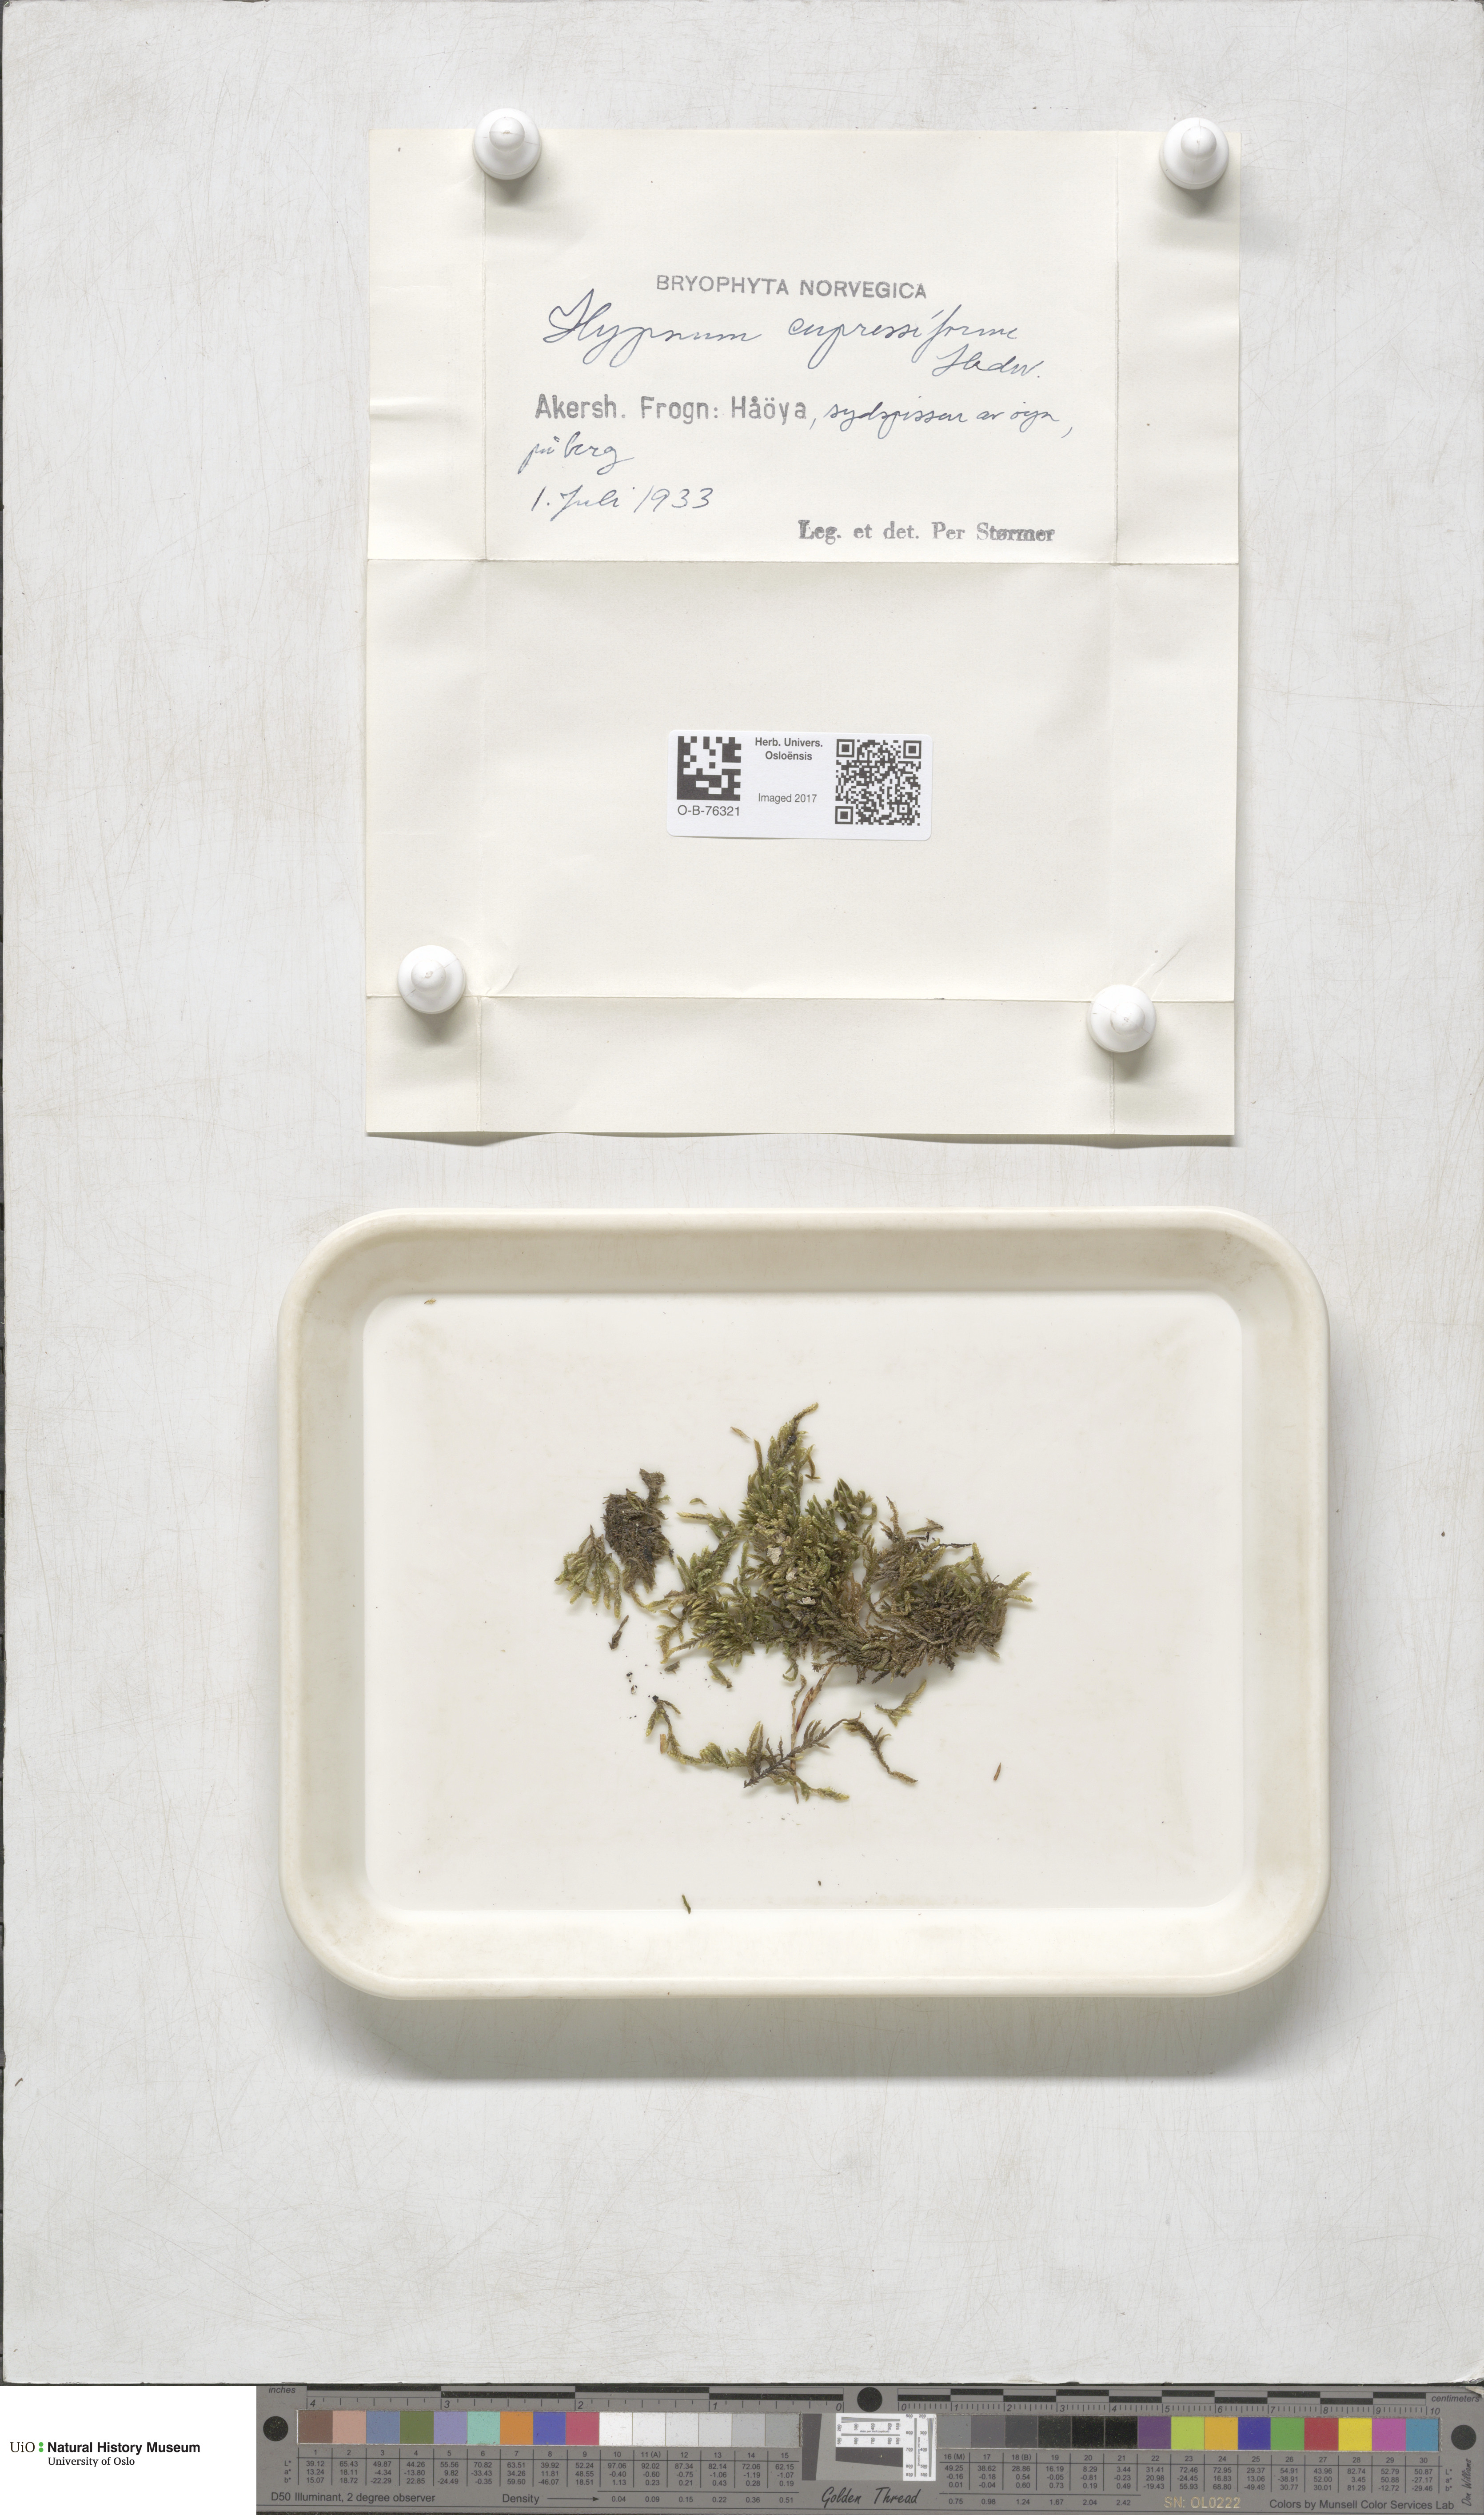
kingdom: Plantae
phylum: Bryophyta
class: Bryopsida
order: Hypnales
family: Hypnaceae
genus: Hypnum
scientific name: Hypnum cupressiforme
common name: Cypress-leaved plait-moss
